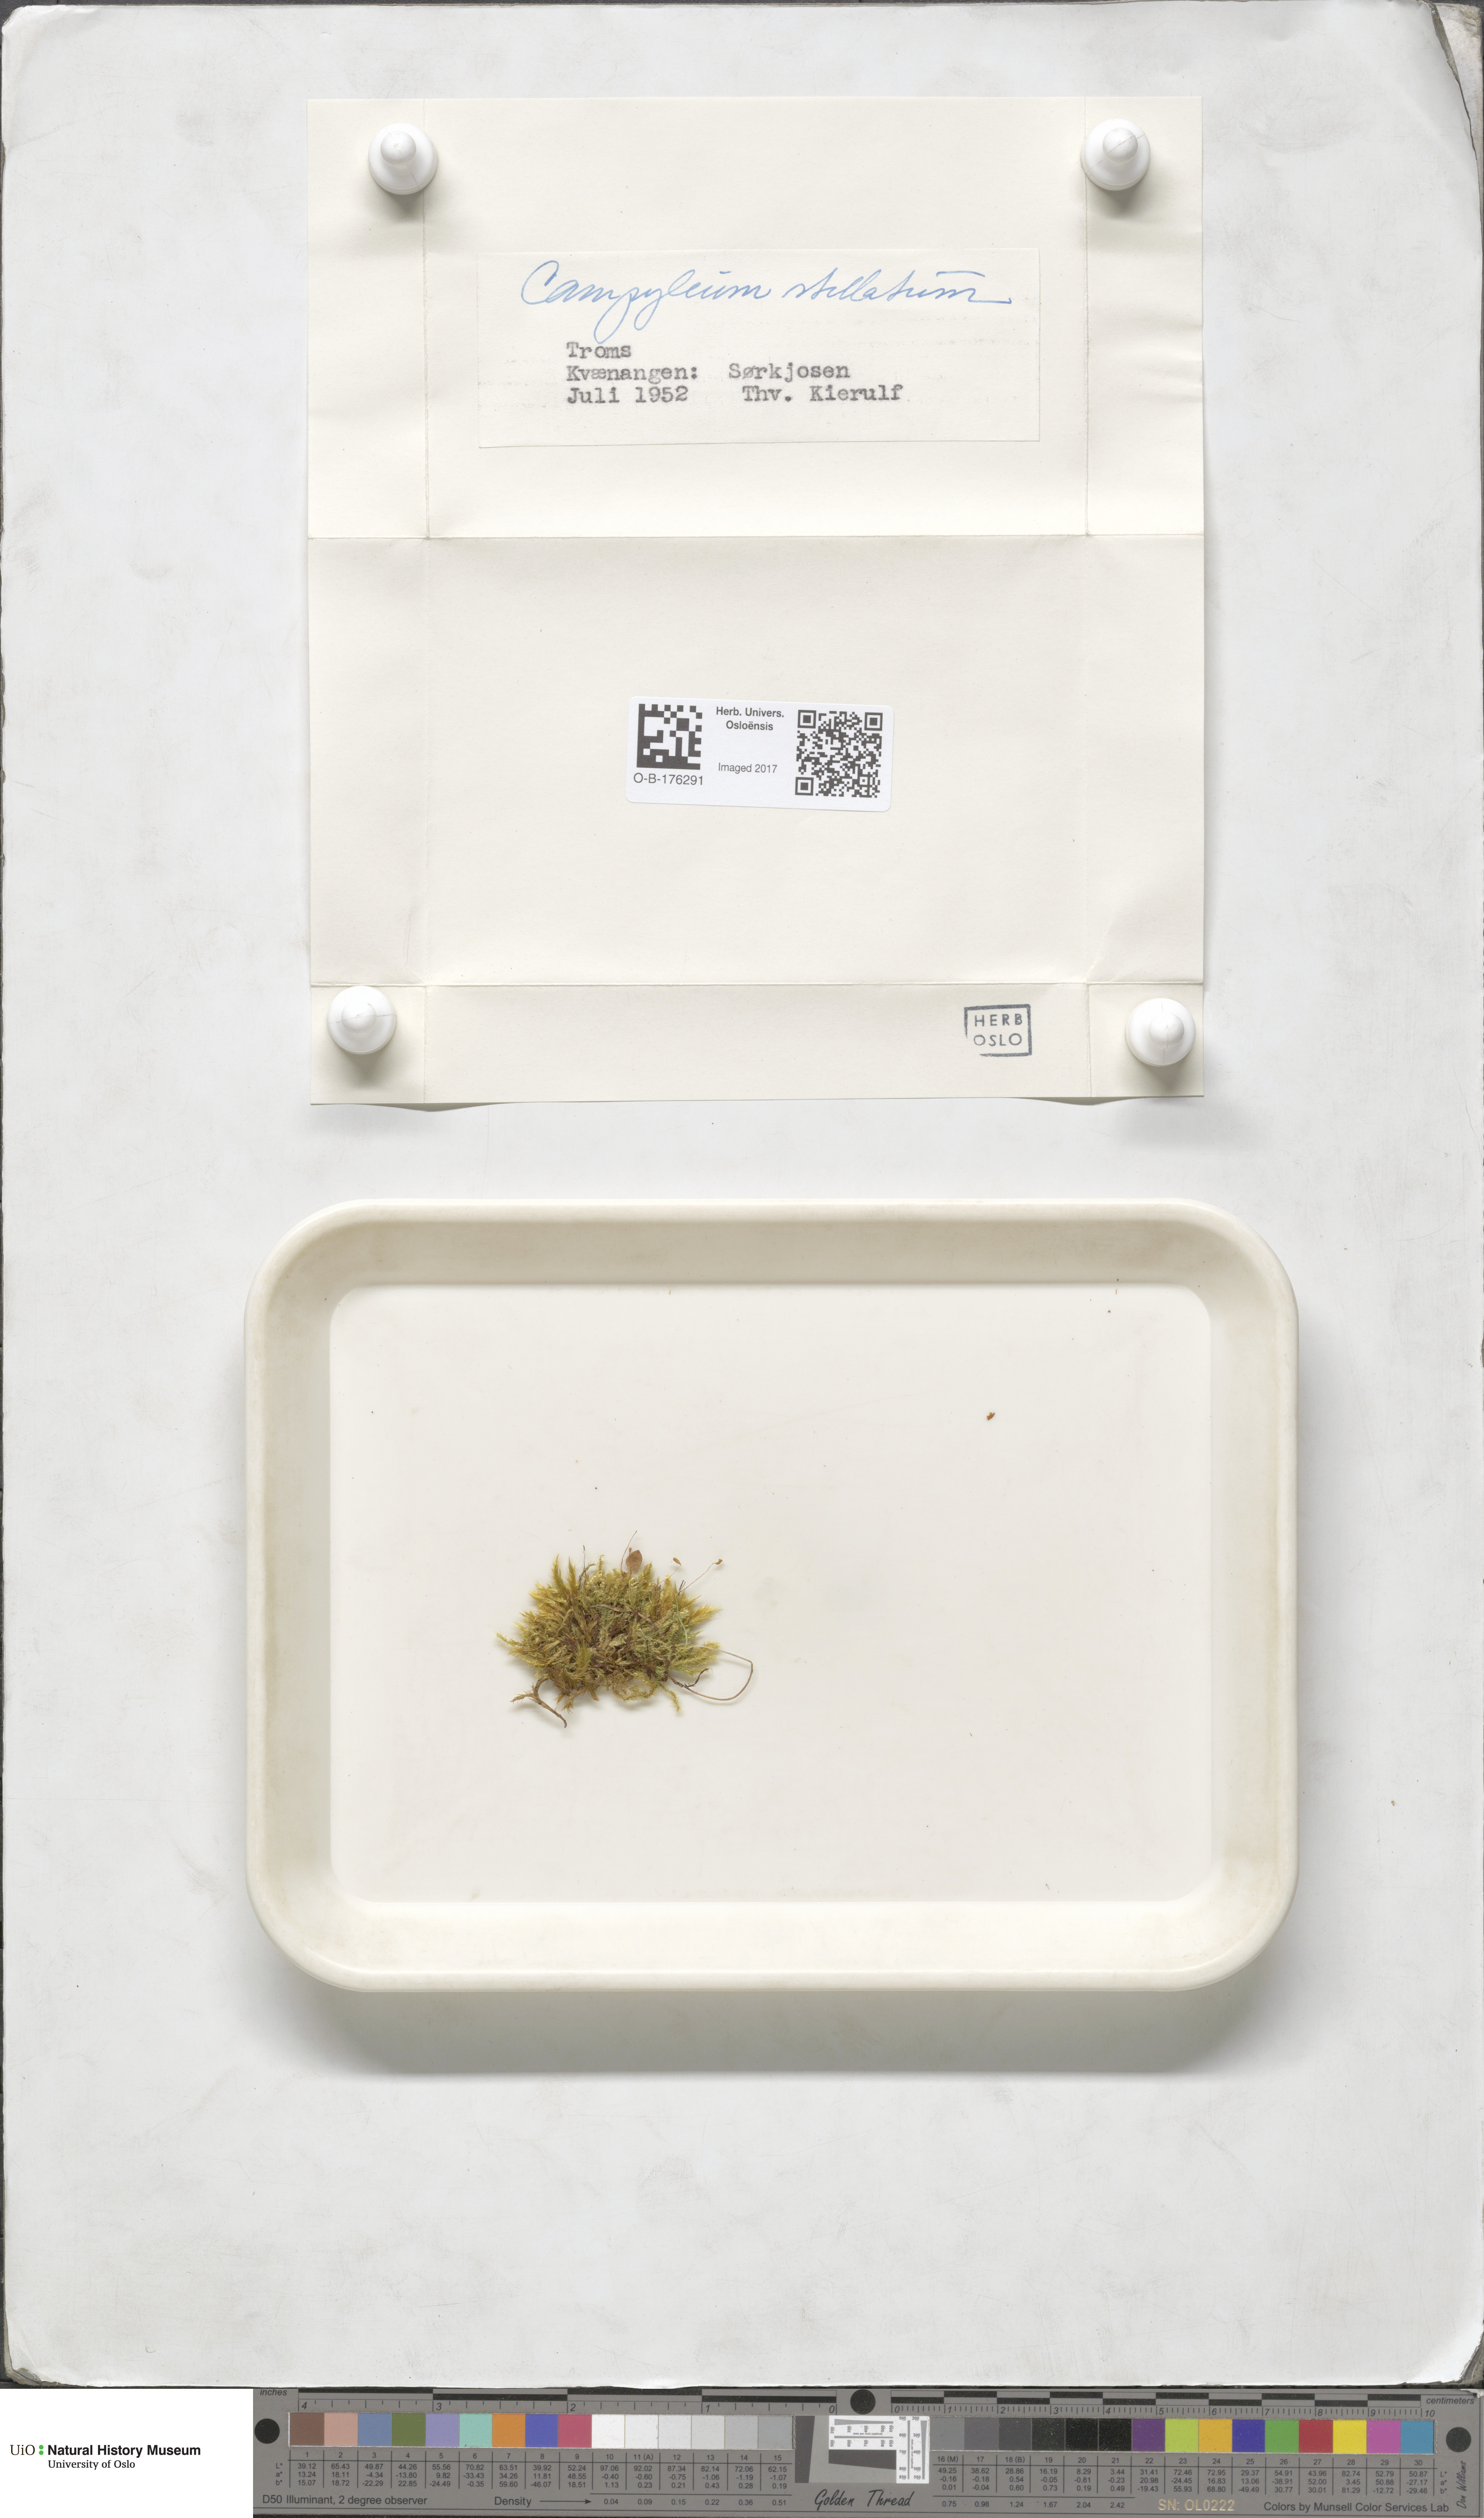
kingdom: Plantae
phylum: Bryophyta
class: Bryopsida
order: Hypnales
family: Amblystegiaceae
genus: Campylium
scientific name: Campylium stellatum
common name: Yellow starry fen moss
